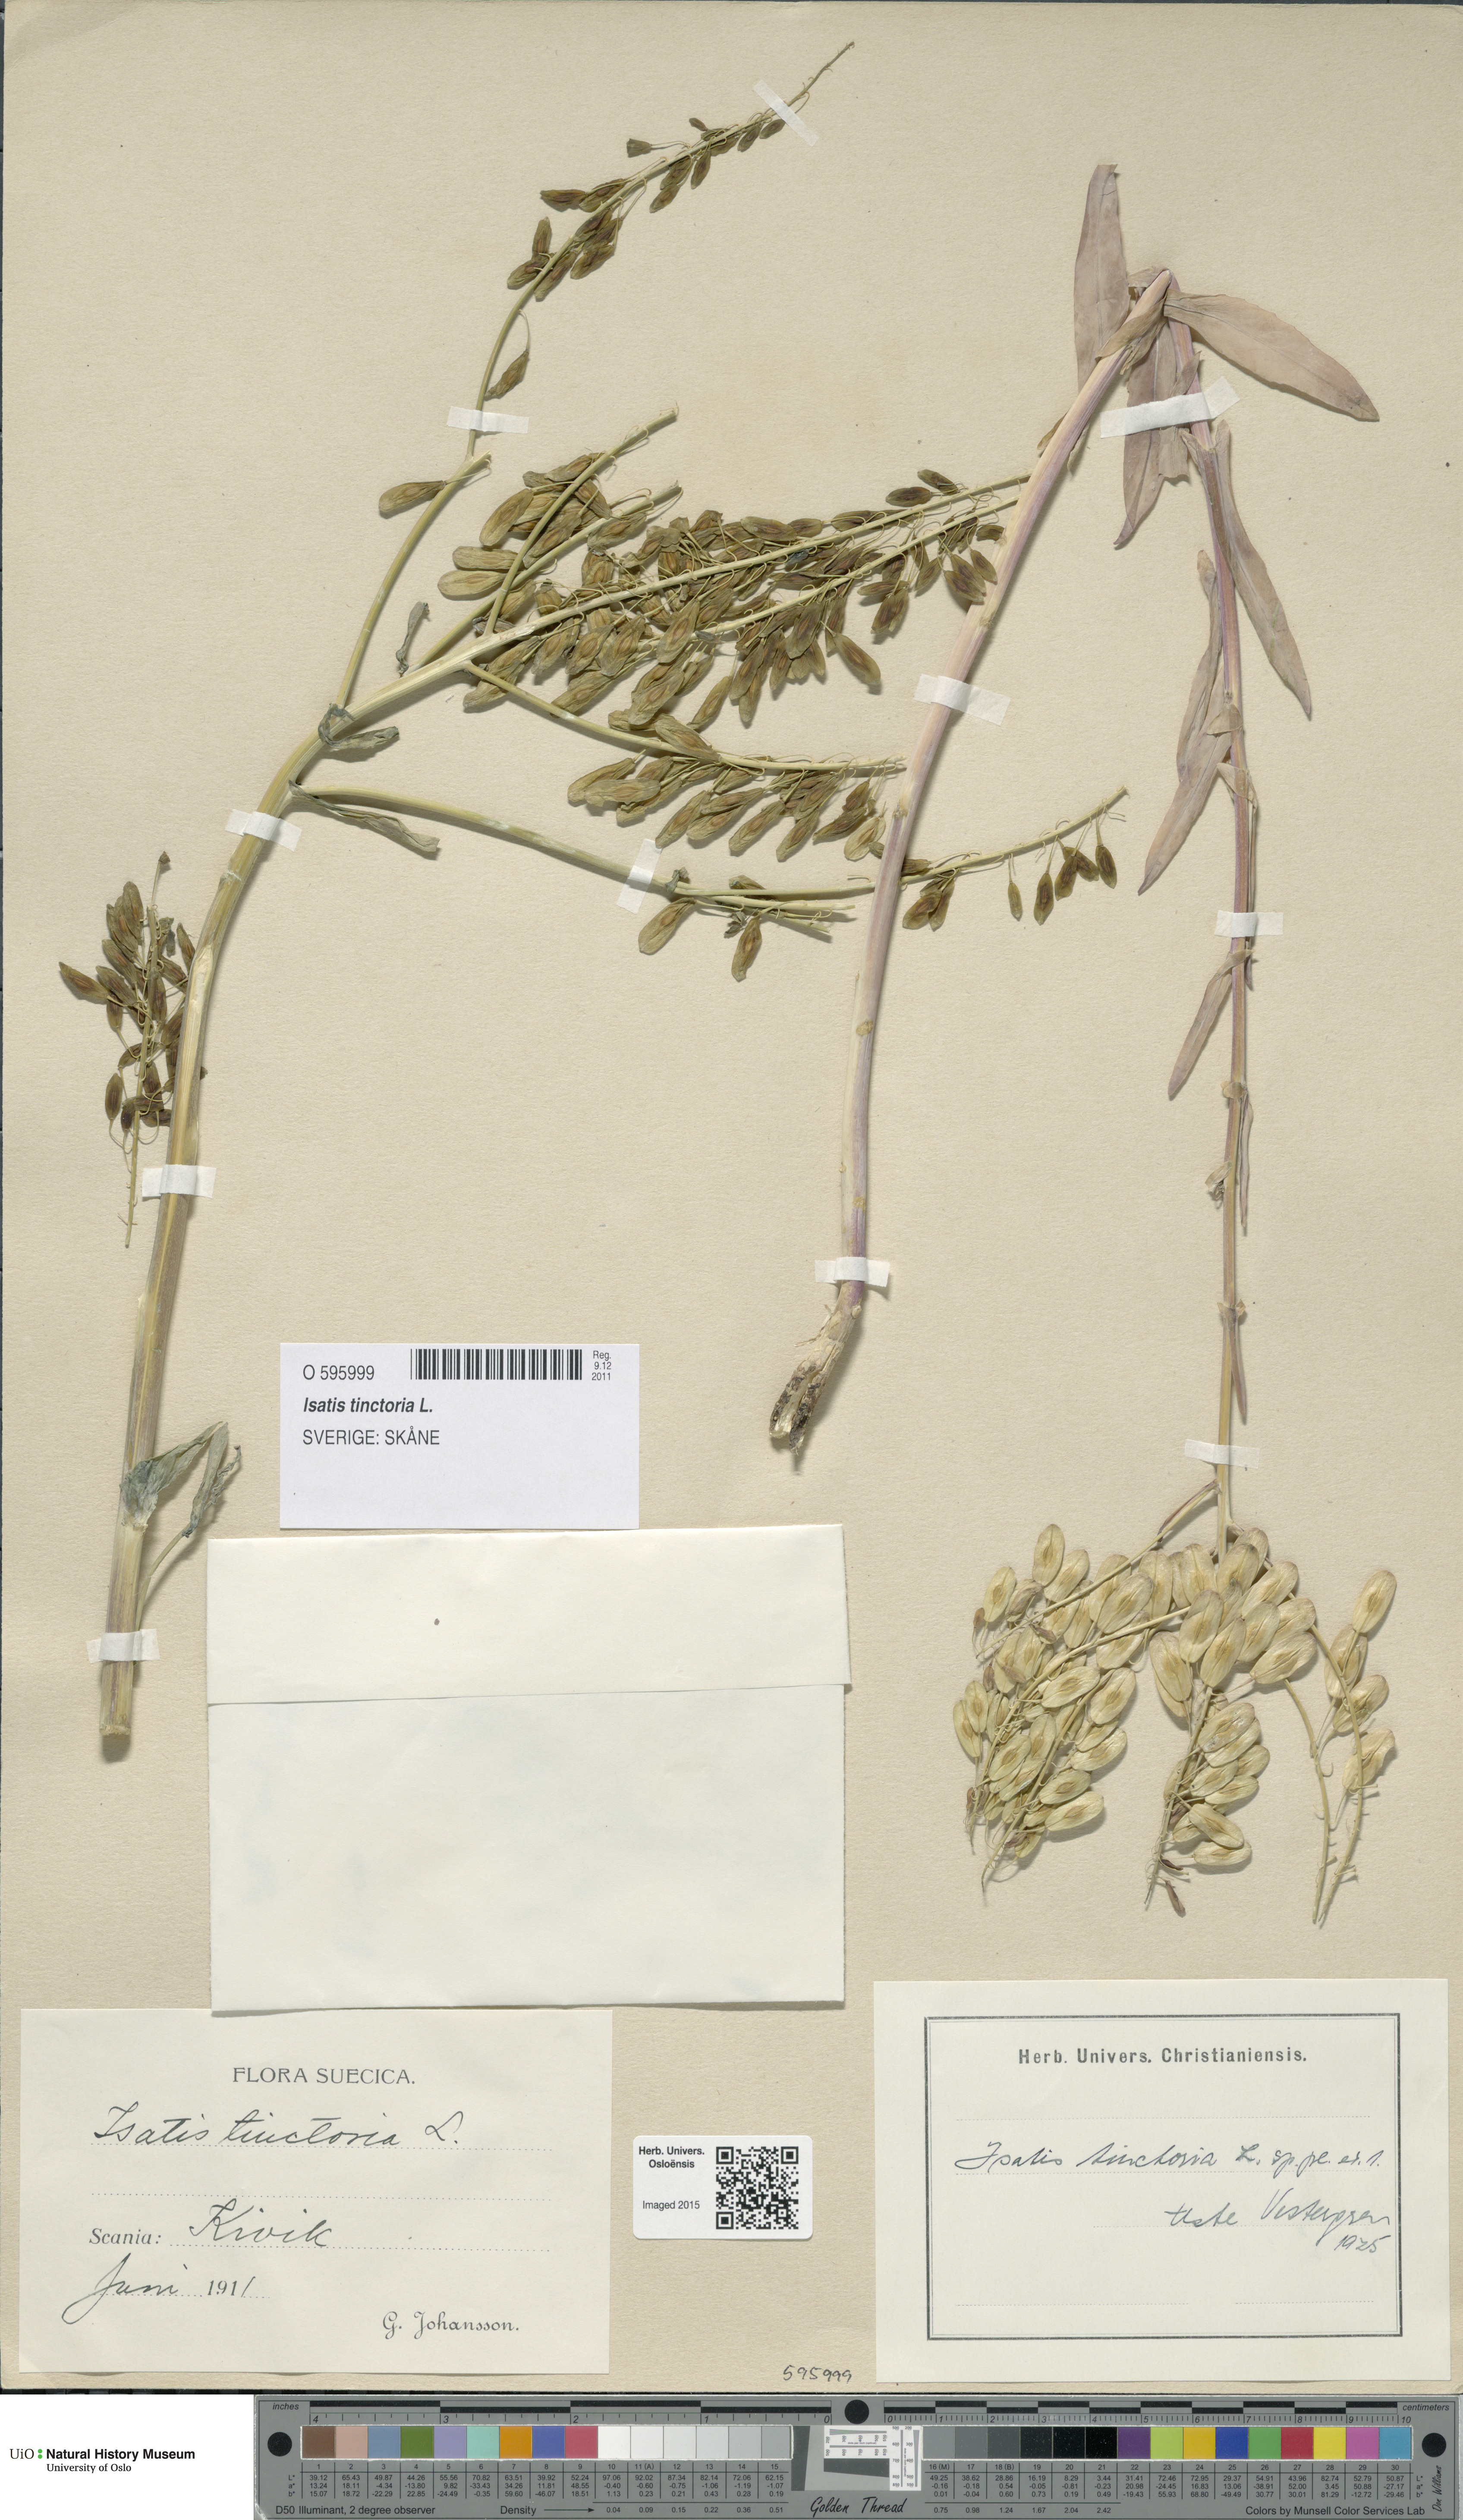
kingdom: Plantae
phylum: Tracheophyta
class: Magnoliopsida
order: Brassicales
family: Brassicaceae
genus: Isatis
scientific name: Isatis tinctoria
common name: Woad
